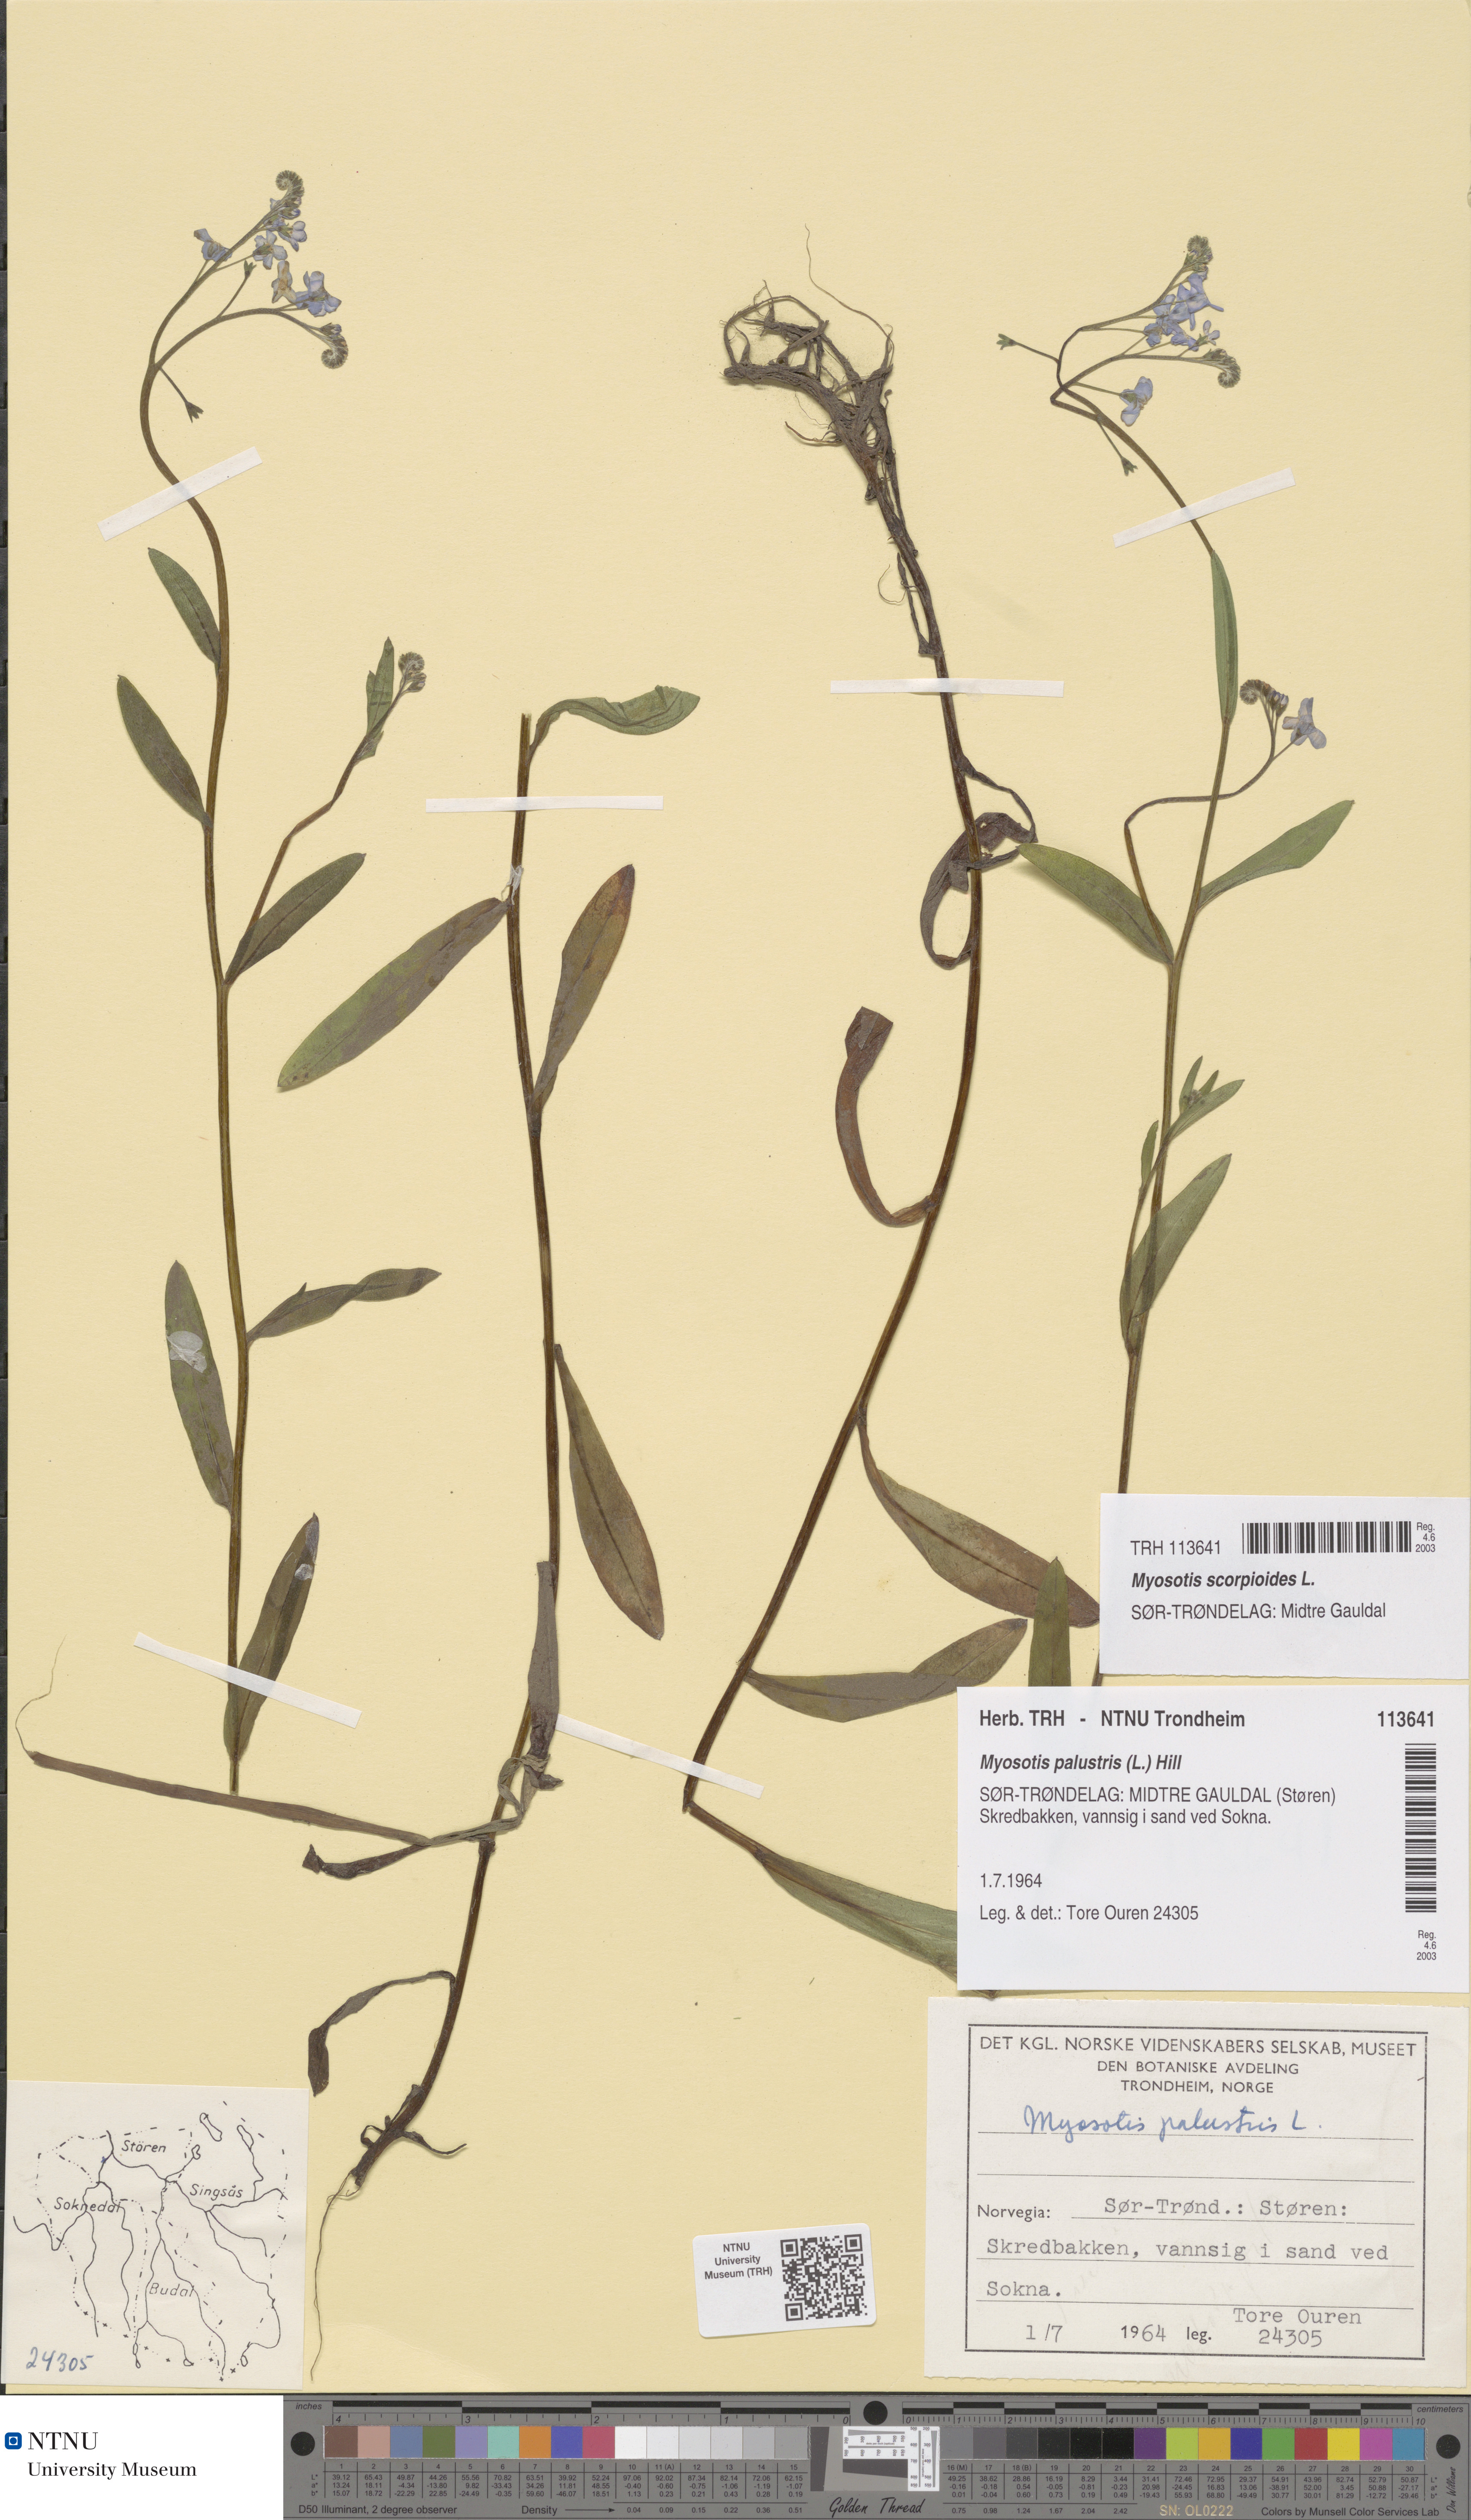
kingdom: Plantae
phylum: Tracheophyta
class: Magnoliopsida
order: Boraginales
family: Boraginaceae
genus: Myosotis
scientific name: Myosotis scorpioides
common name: Water forget-me-not
